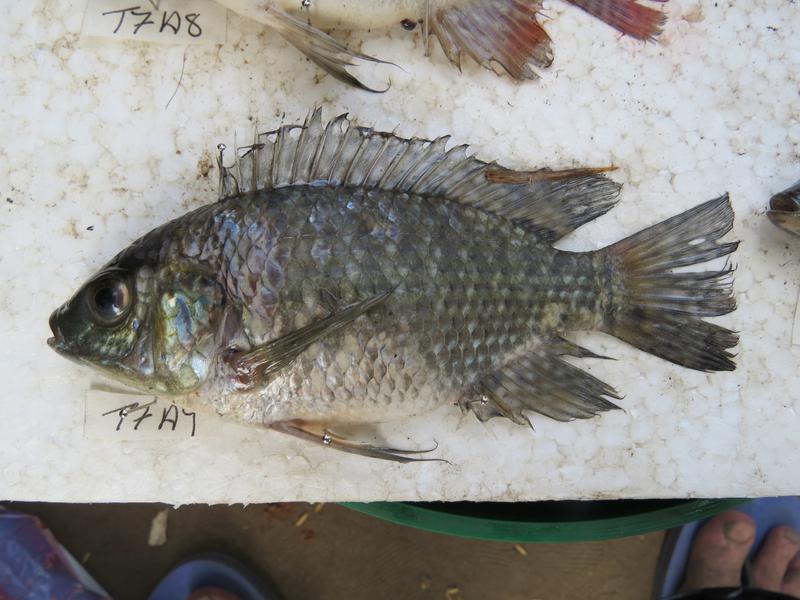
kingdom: Animalia
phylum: Chordata
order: Perciformes
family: Cichlidae
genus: Oreochromis
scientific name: Oreochromis leucostictus
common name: Blue spotted tilapia
